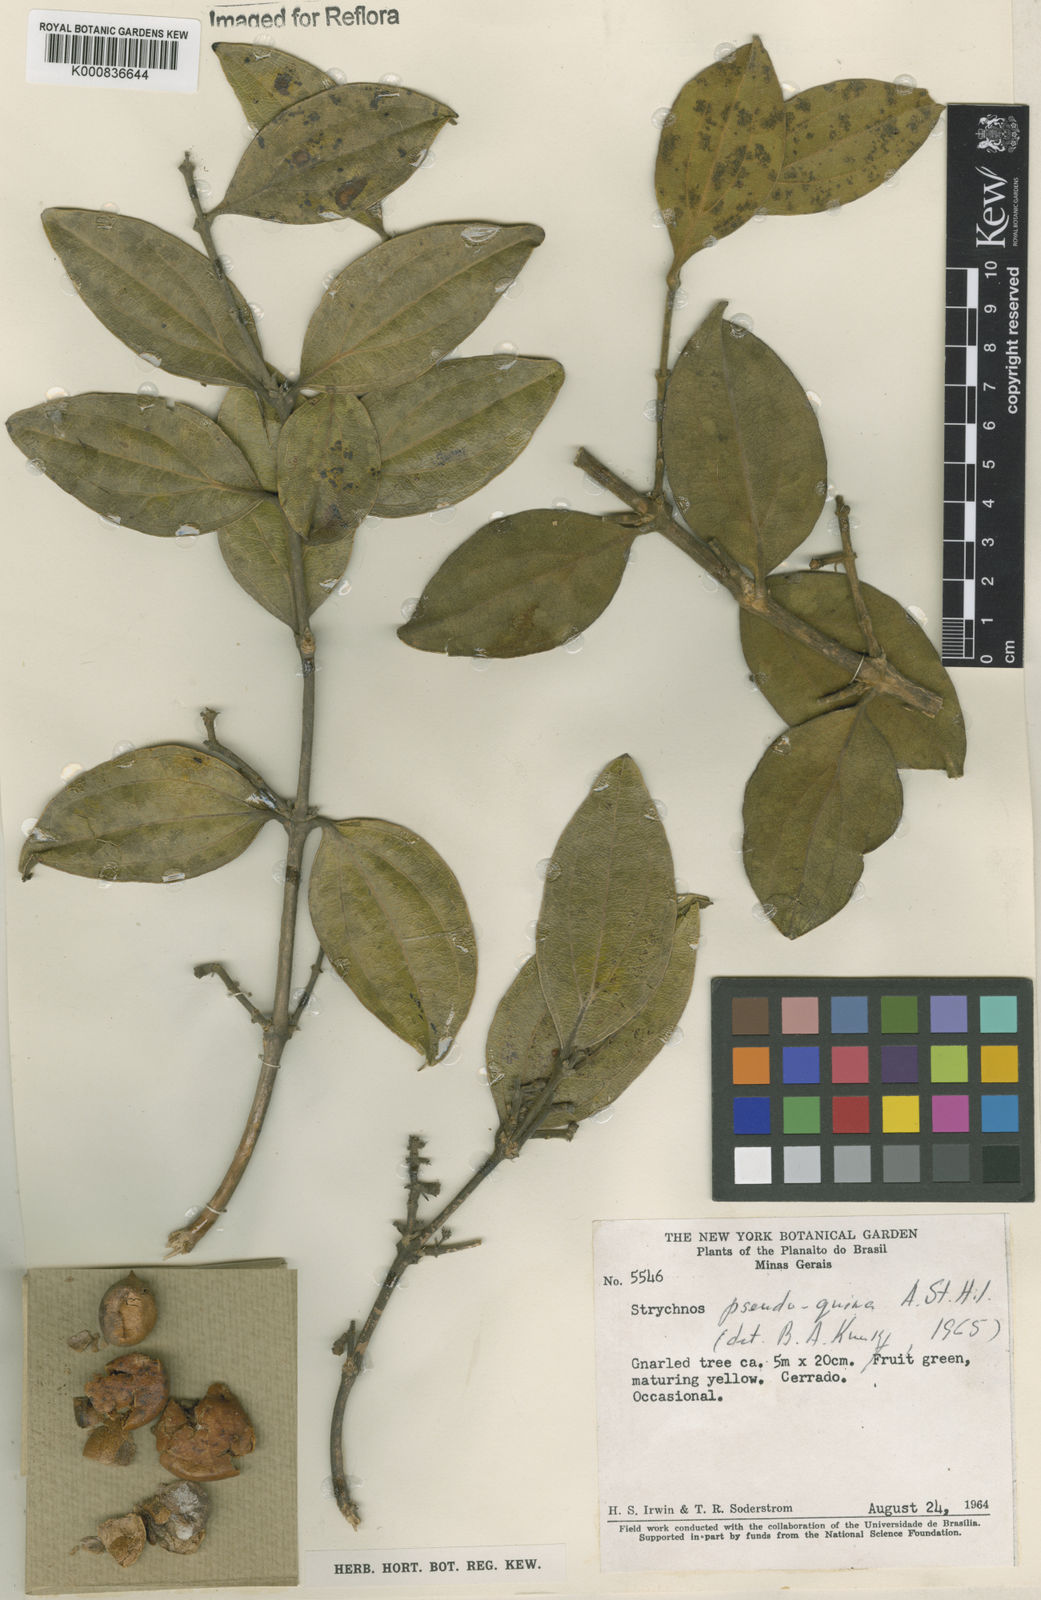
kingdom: Plantae
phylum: Tracheophyta
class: Magnoliopsida
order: Gentianales
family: Loganiaceae
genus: Strychnos
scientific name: Strychnos pseudoquina
